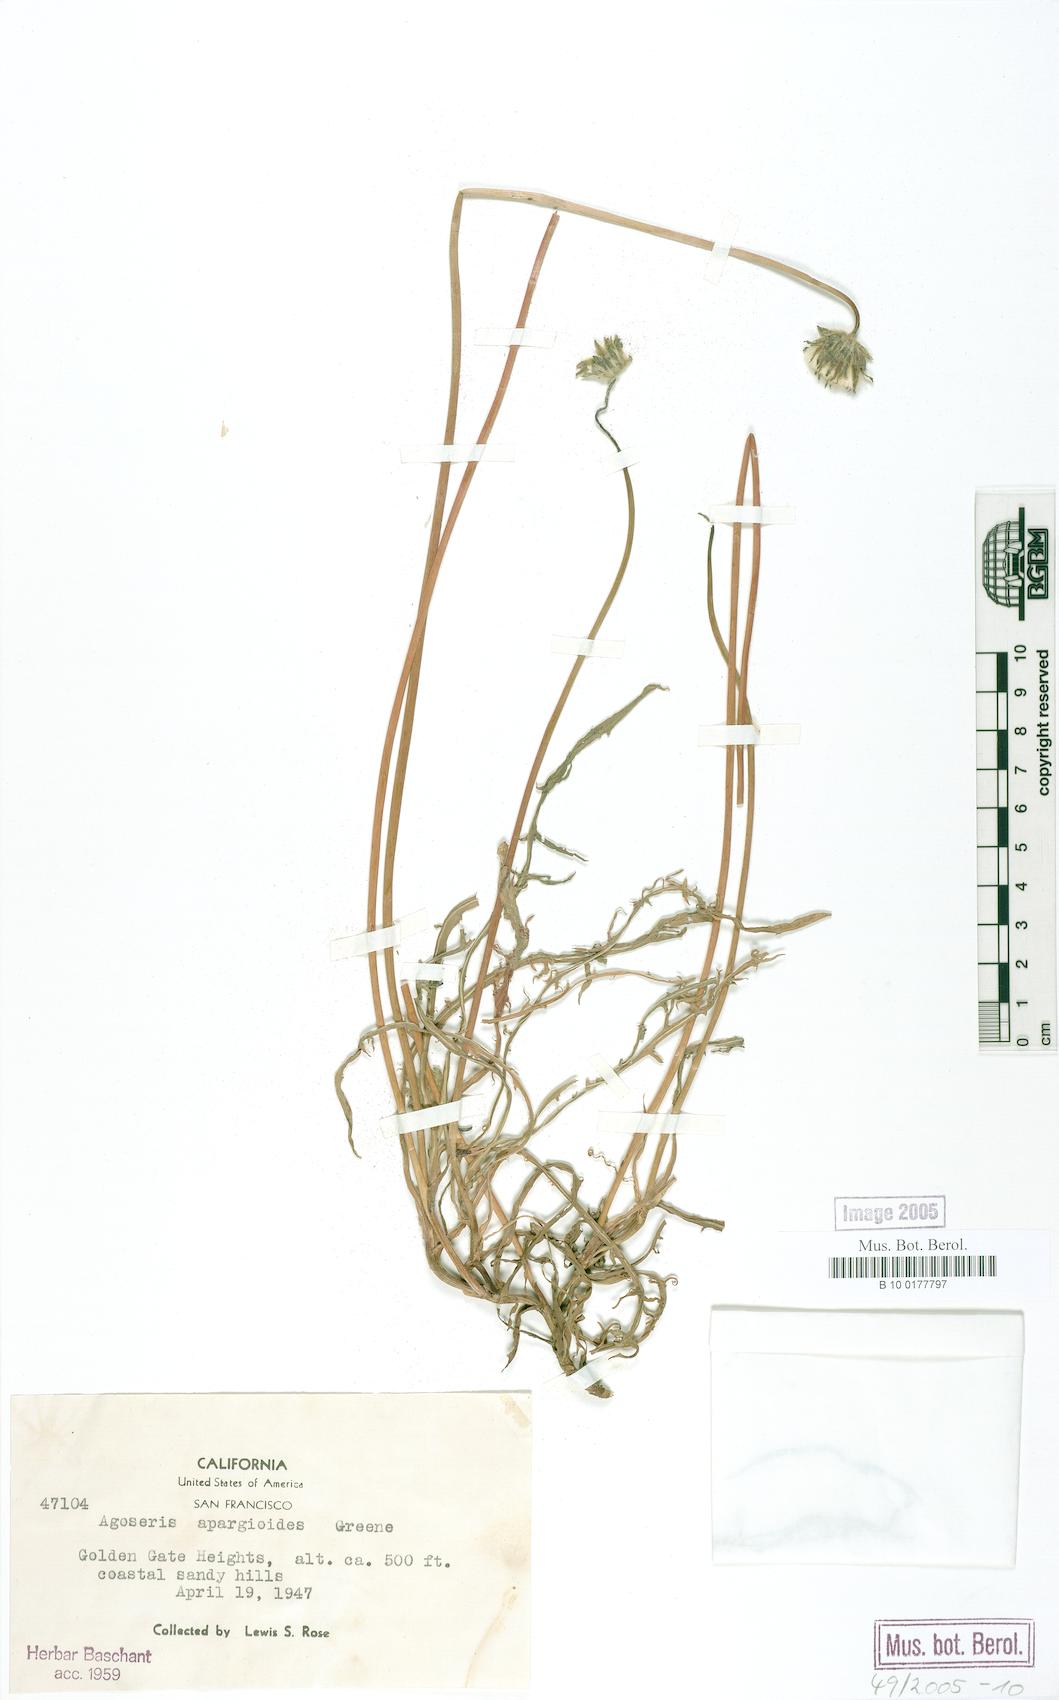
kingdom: Plantae
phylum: Tracheophyta
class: Magnoliopsida
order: Asterales
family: Asteraceae
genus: Agoseris
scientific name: Agoseris apargioides
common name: Point reyes agoseris
